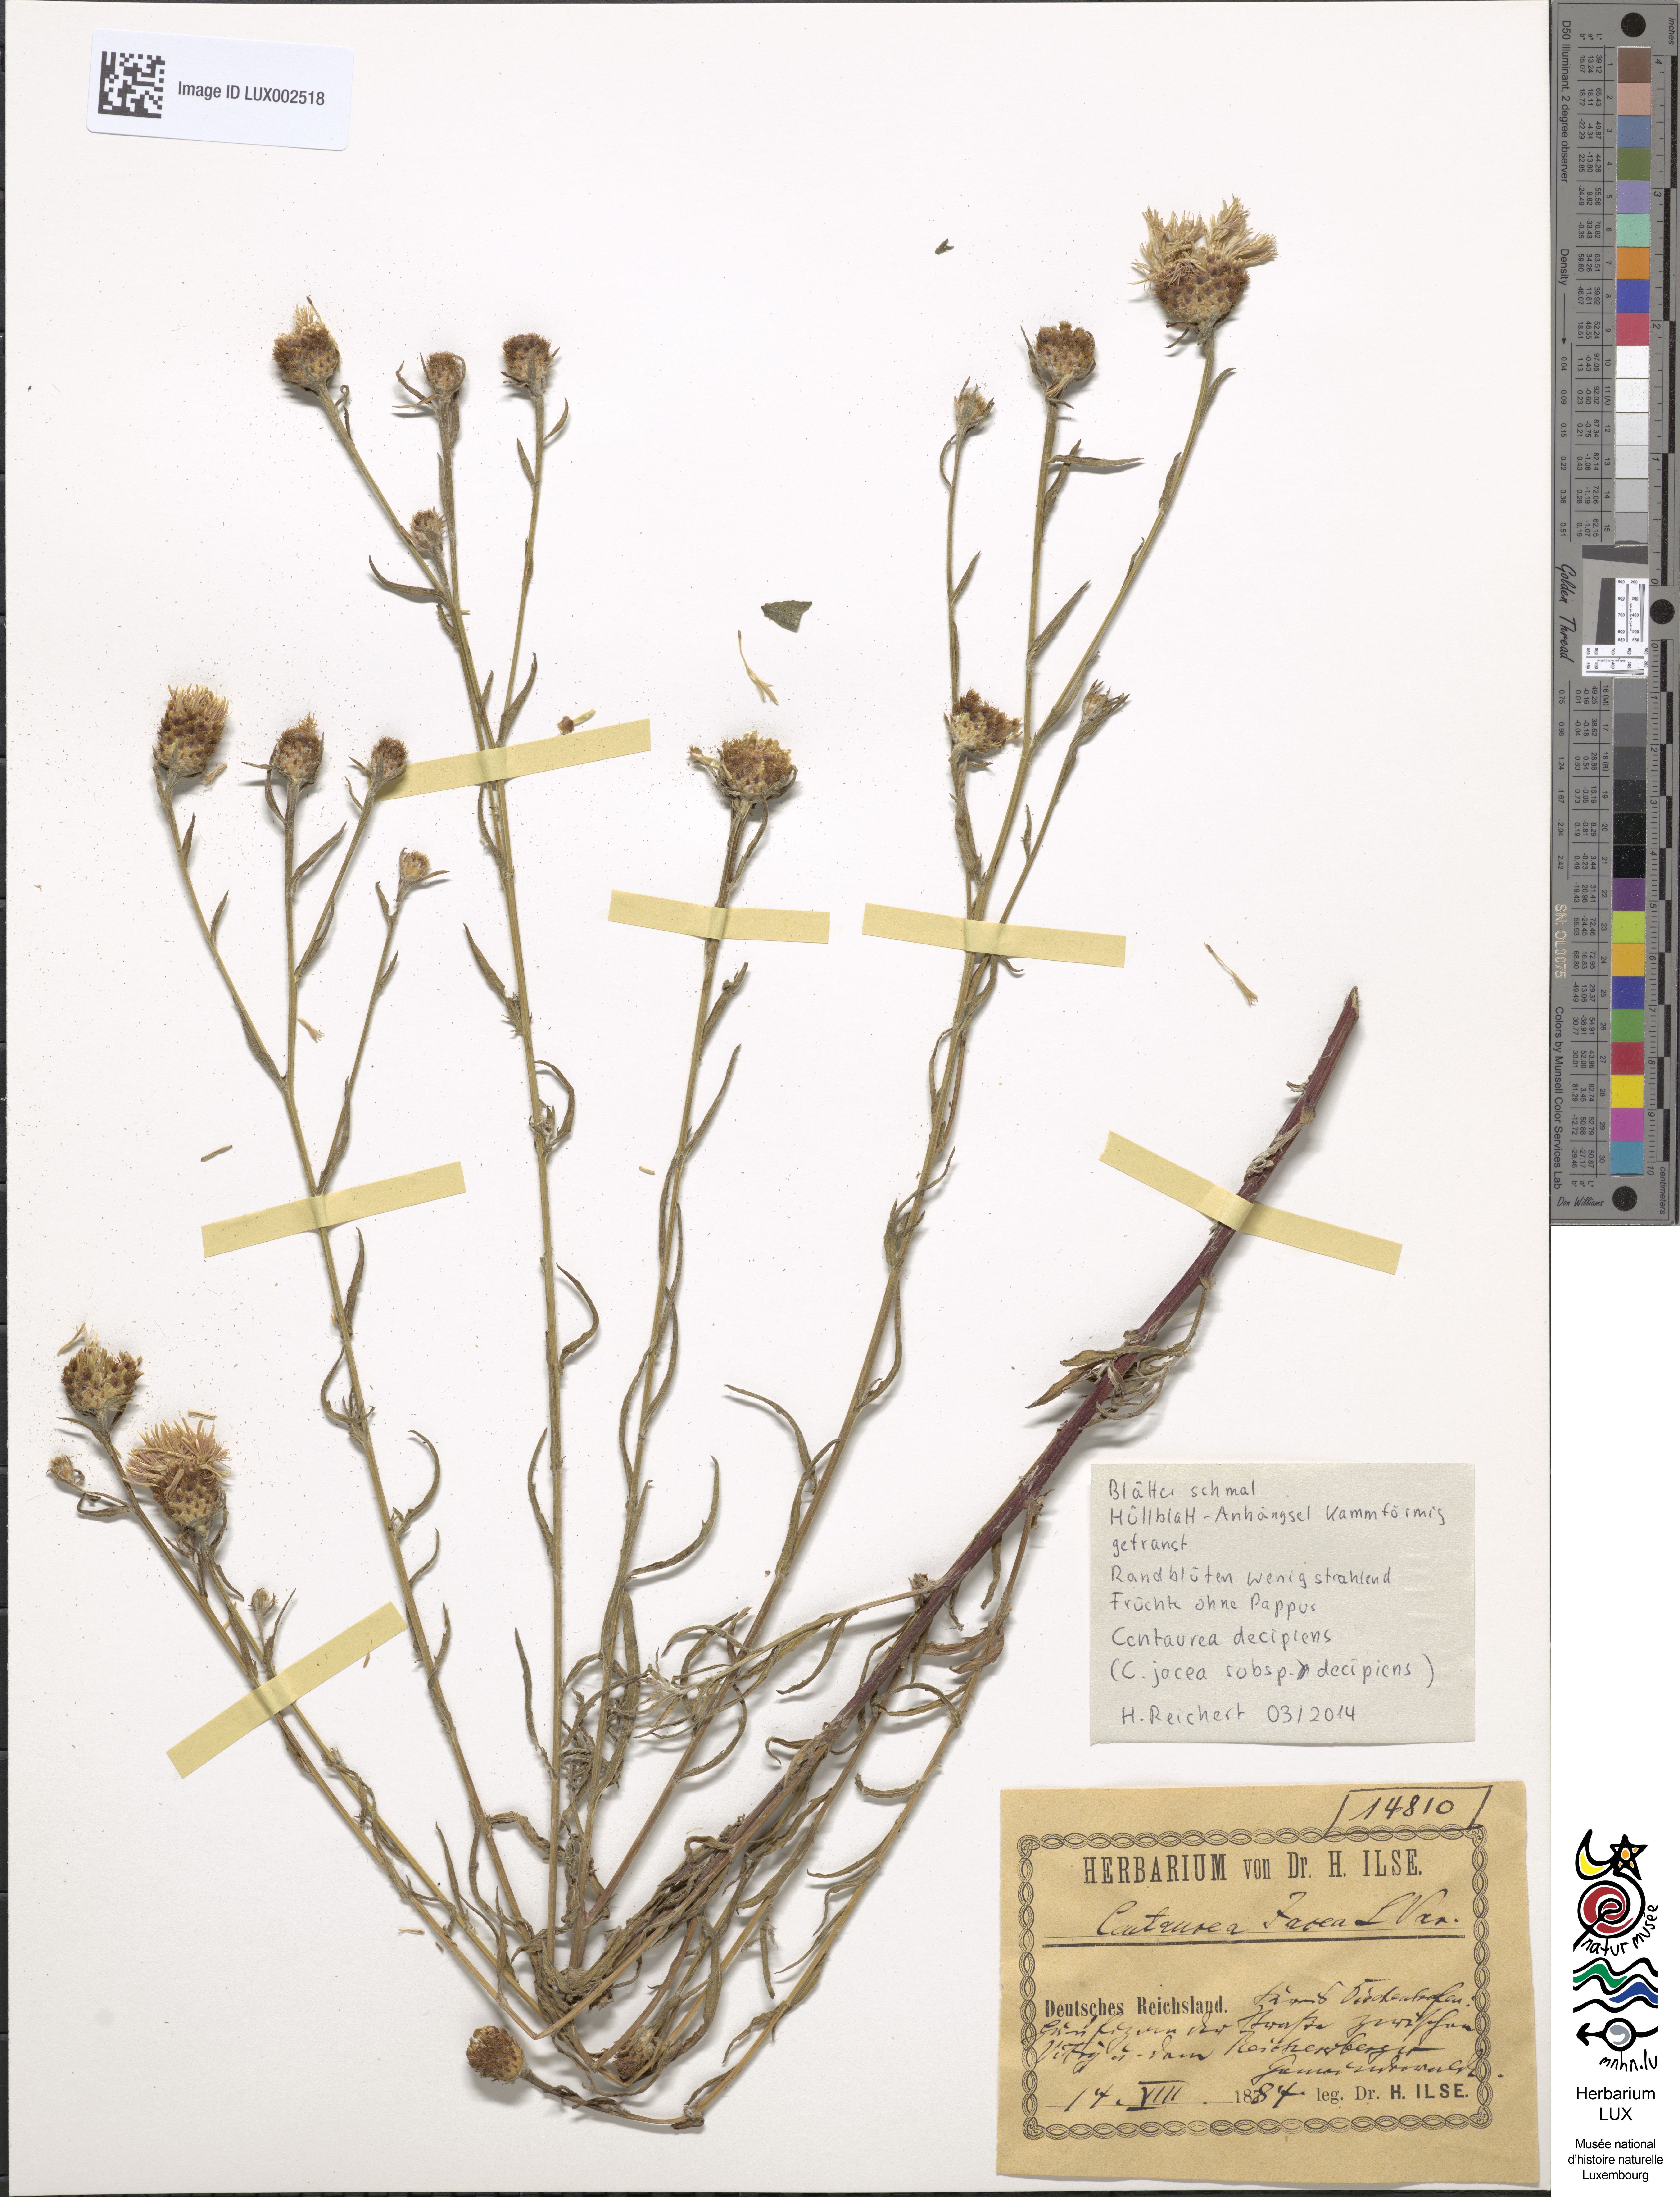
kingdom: Plantae
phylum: Tracheophyta
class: Magnoliopsida
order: Asterales
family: Asteraceae
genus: Centaurea
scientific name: Centaurea jacea
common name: Brown knapweed
